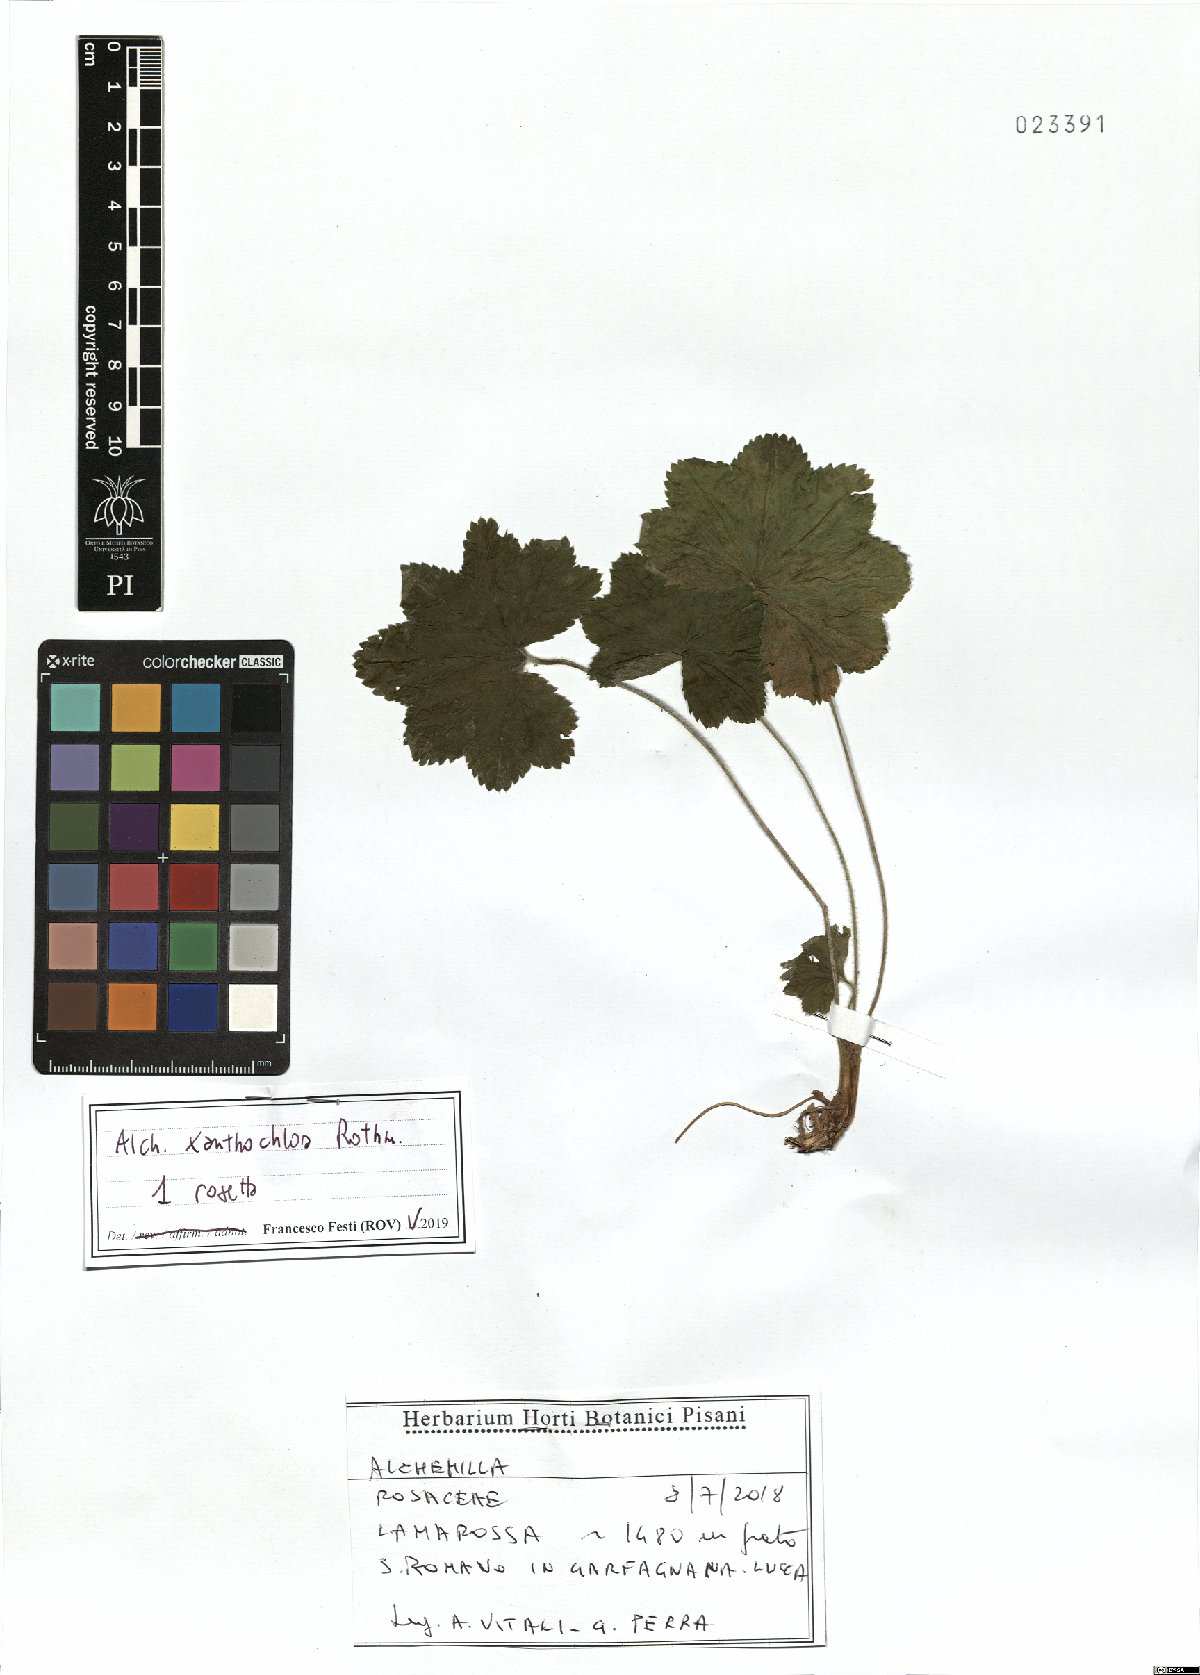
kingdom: Plantae
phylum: Tracheophyta
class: Magnoliopsida
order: Rosales
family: Rosaceae
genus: Alchemilla
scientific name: Alchemilla xanthochlora
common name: Intermediate lady's-mantle
